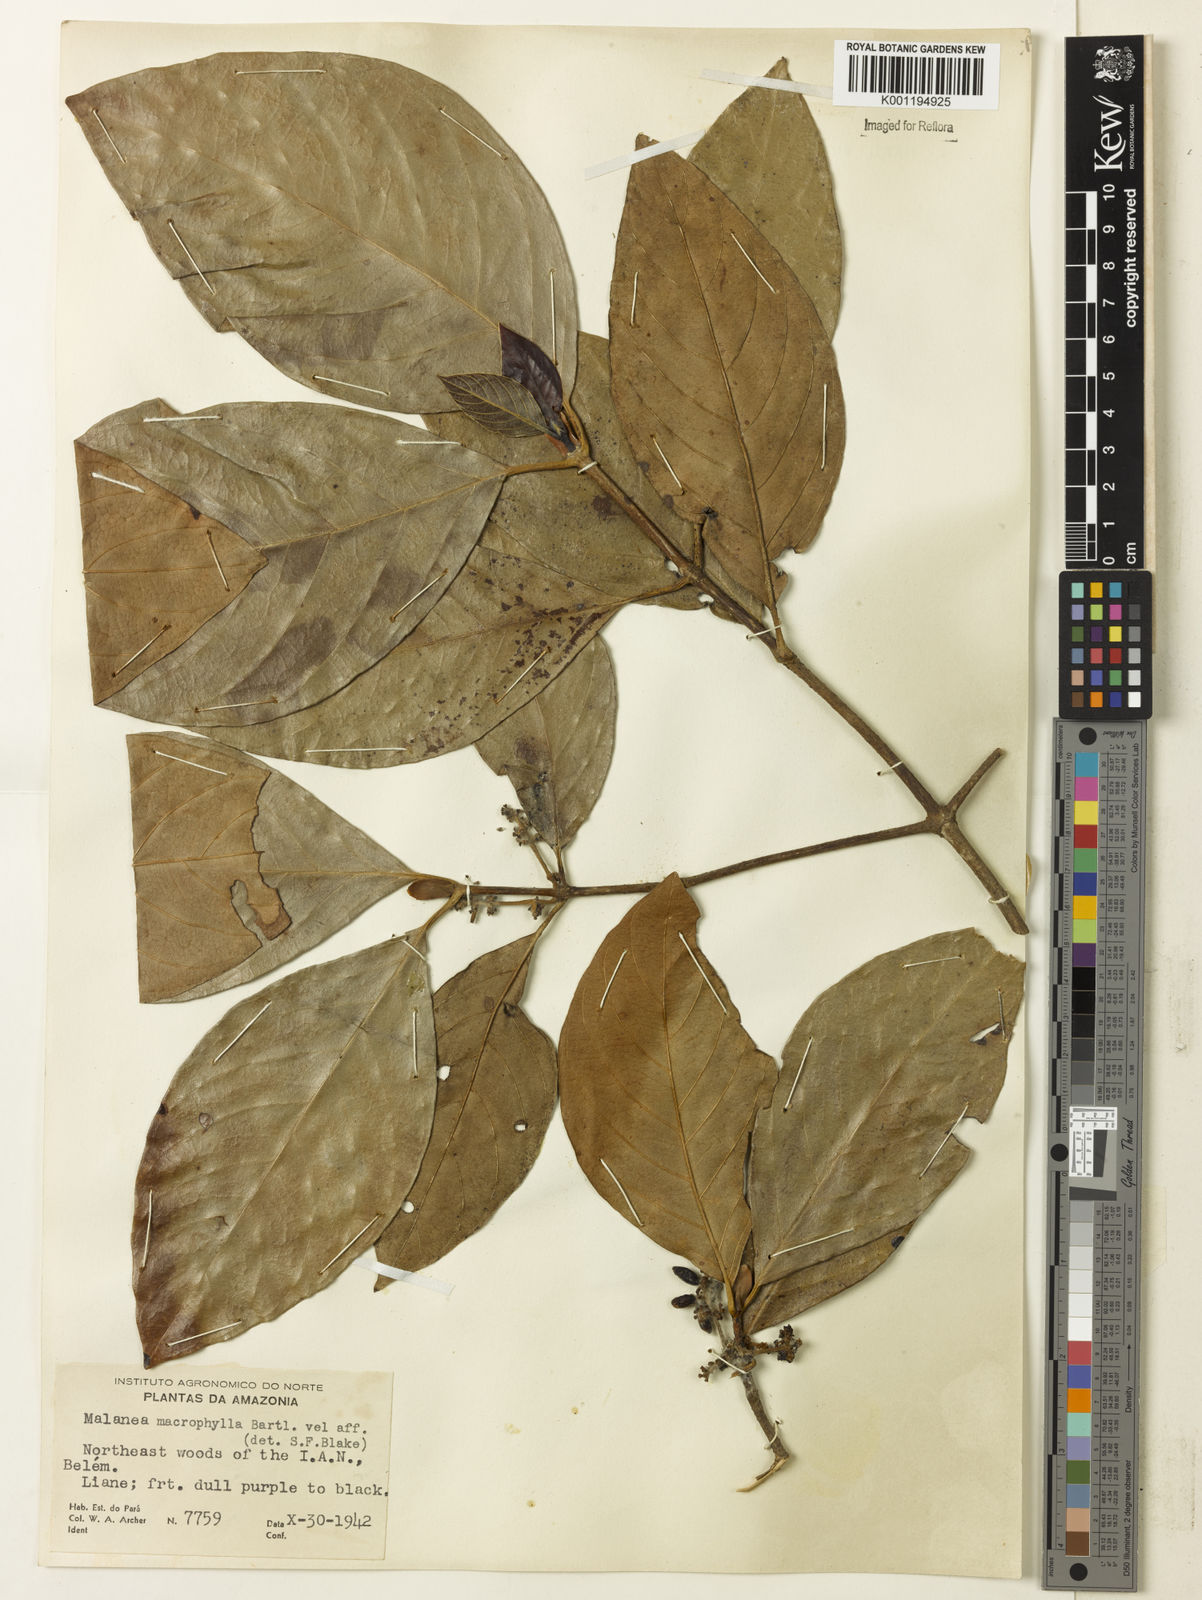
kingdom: Plantae
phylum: Tracheophyta
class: Magnoliopsida
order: Gentianales
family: Rubiaceae
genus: Malanea
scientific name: Malanea glabra
